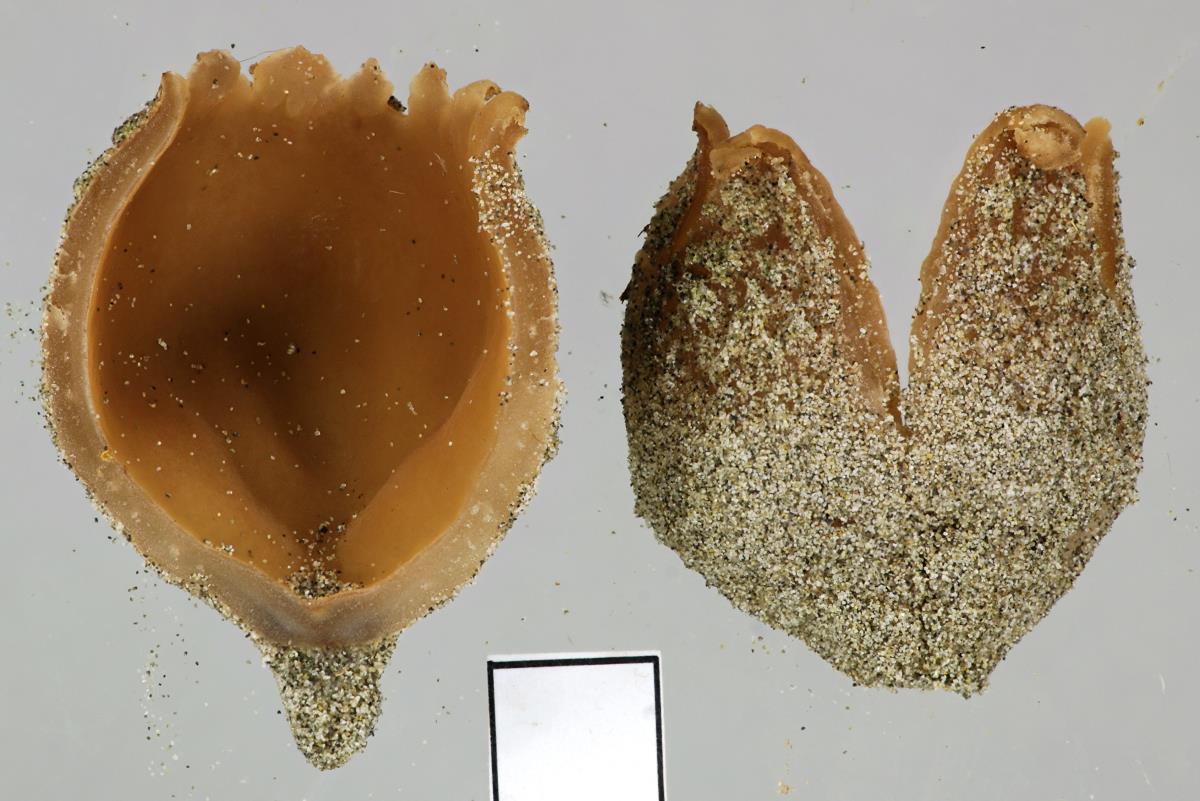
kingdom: Fungi
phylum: Ascomycota
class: Pezizomycetes
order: Pezizales
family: Pezizaceae
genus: Peziza
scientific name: Peziza austrogeaster
